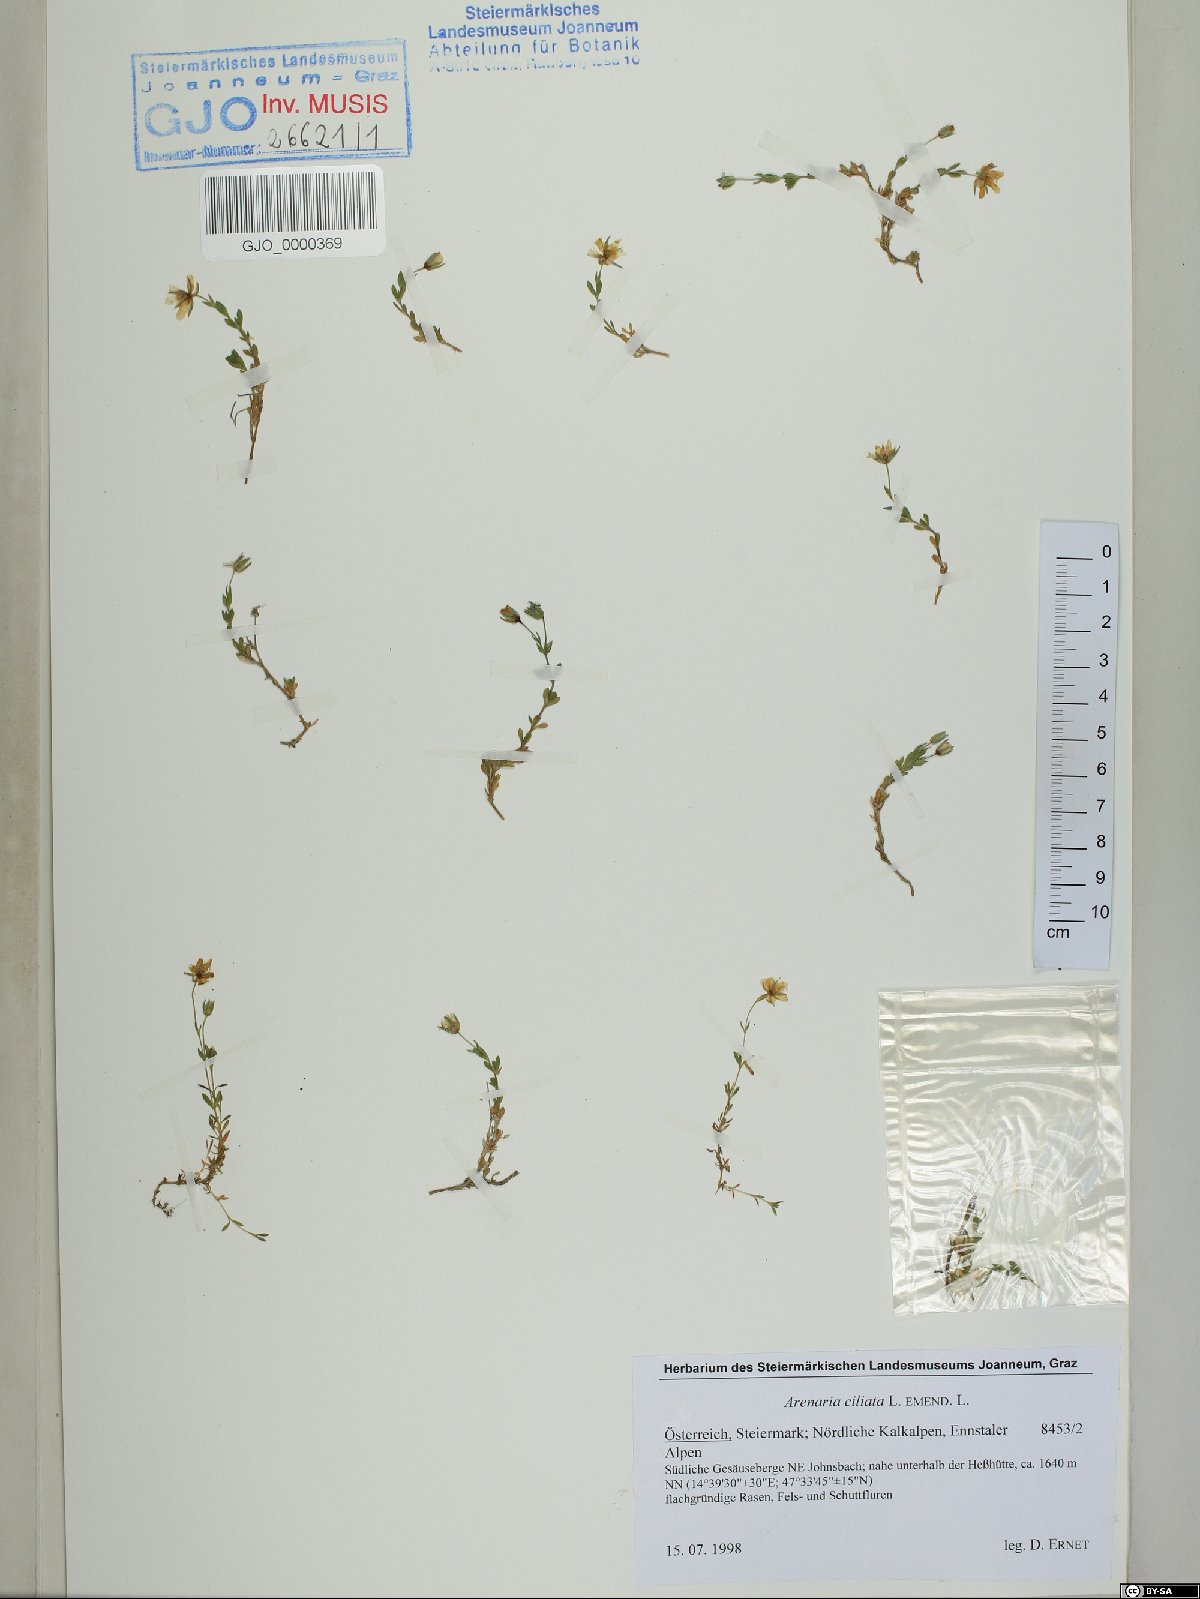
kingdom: Plantae
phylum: Tracheophyta
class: Magnoliopsida
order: Caryophyllales
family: Caryophyllaceae
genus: Arenaria
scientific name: Arenaria ciliata
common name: Fringed sandwort
